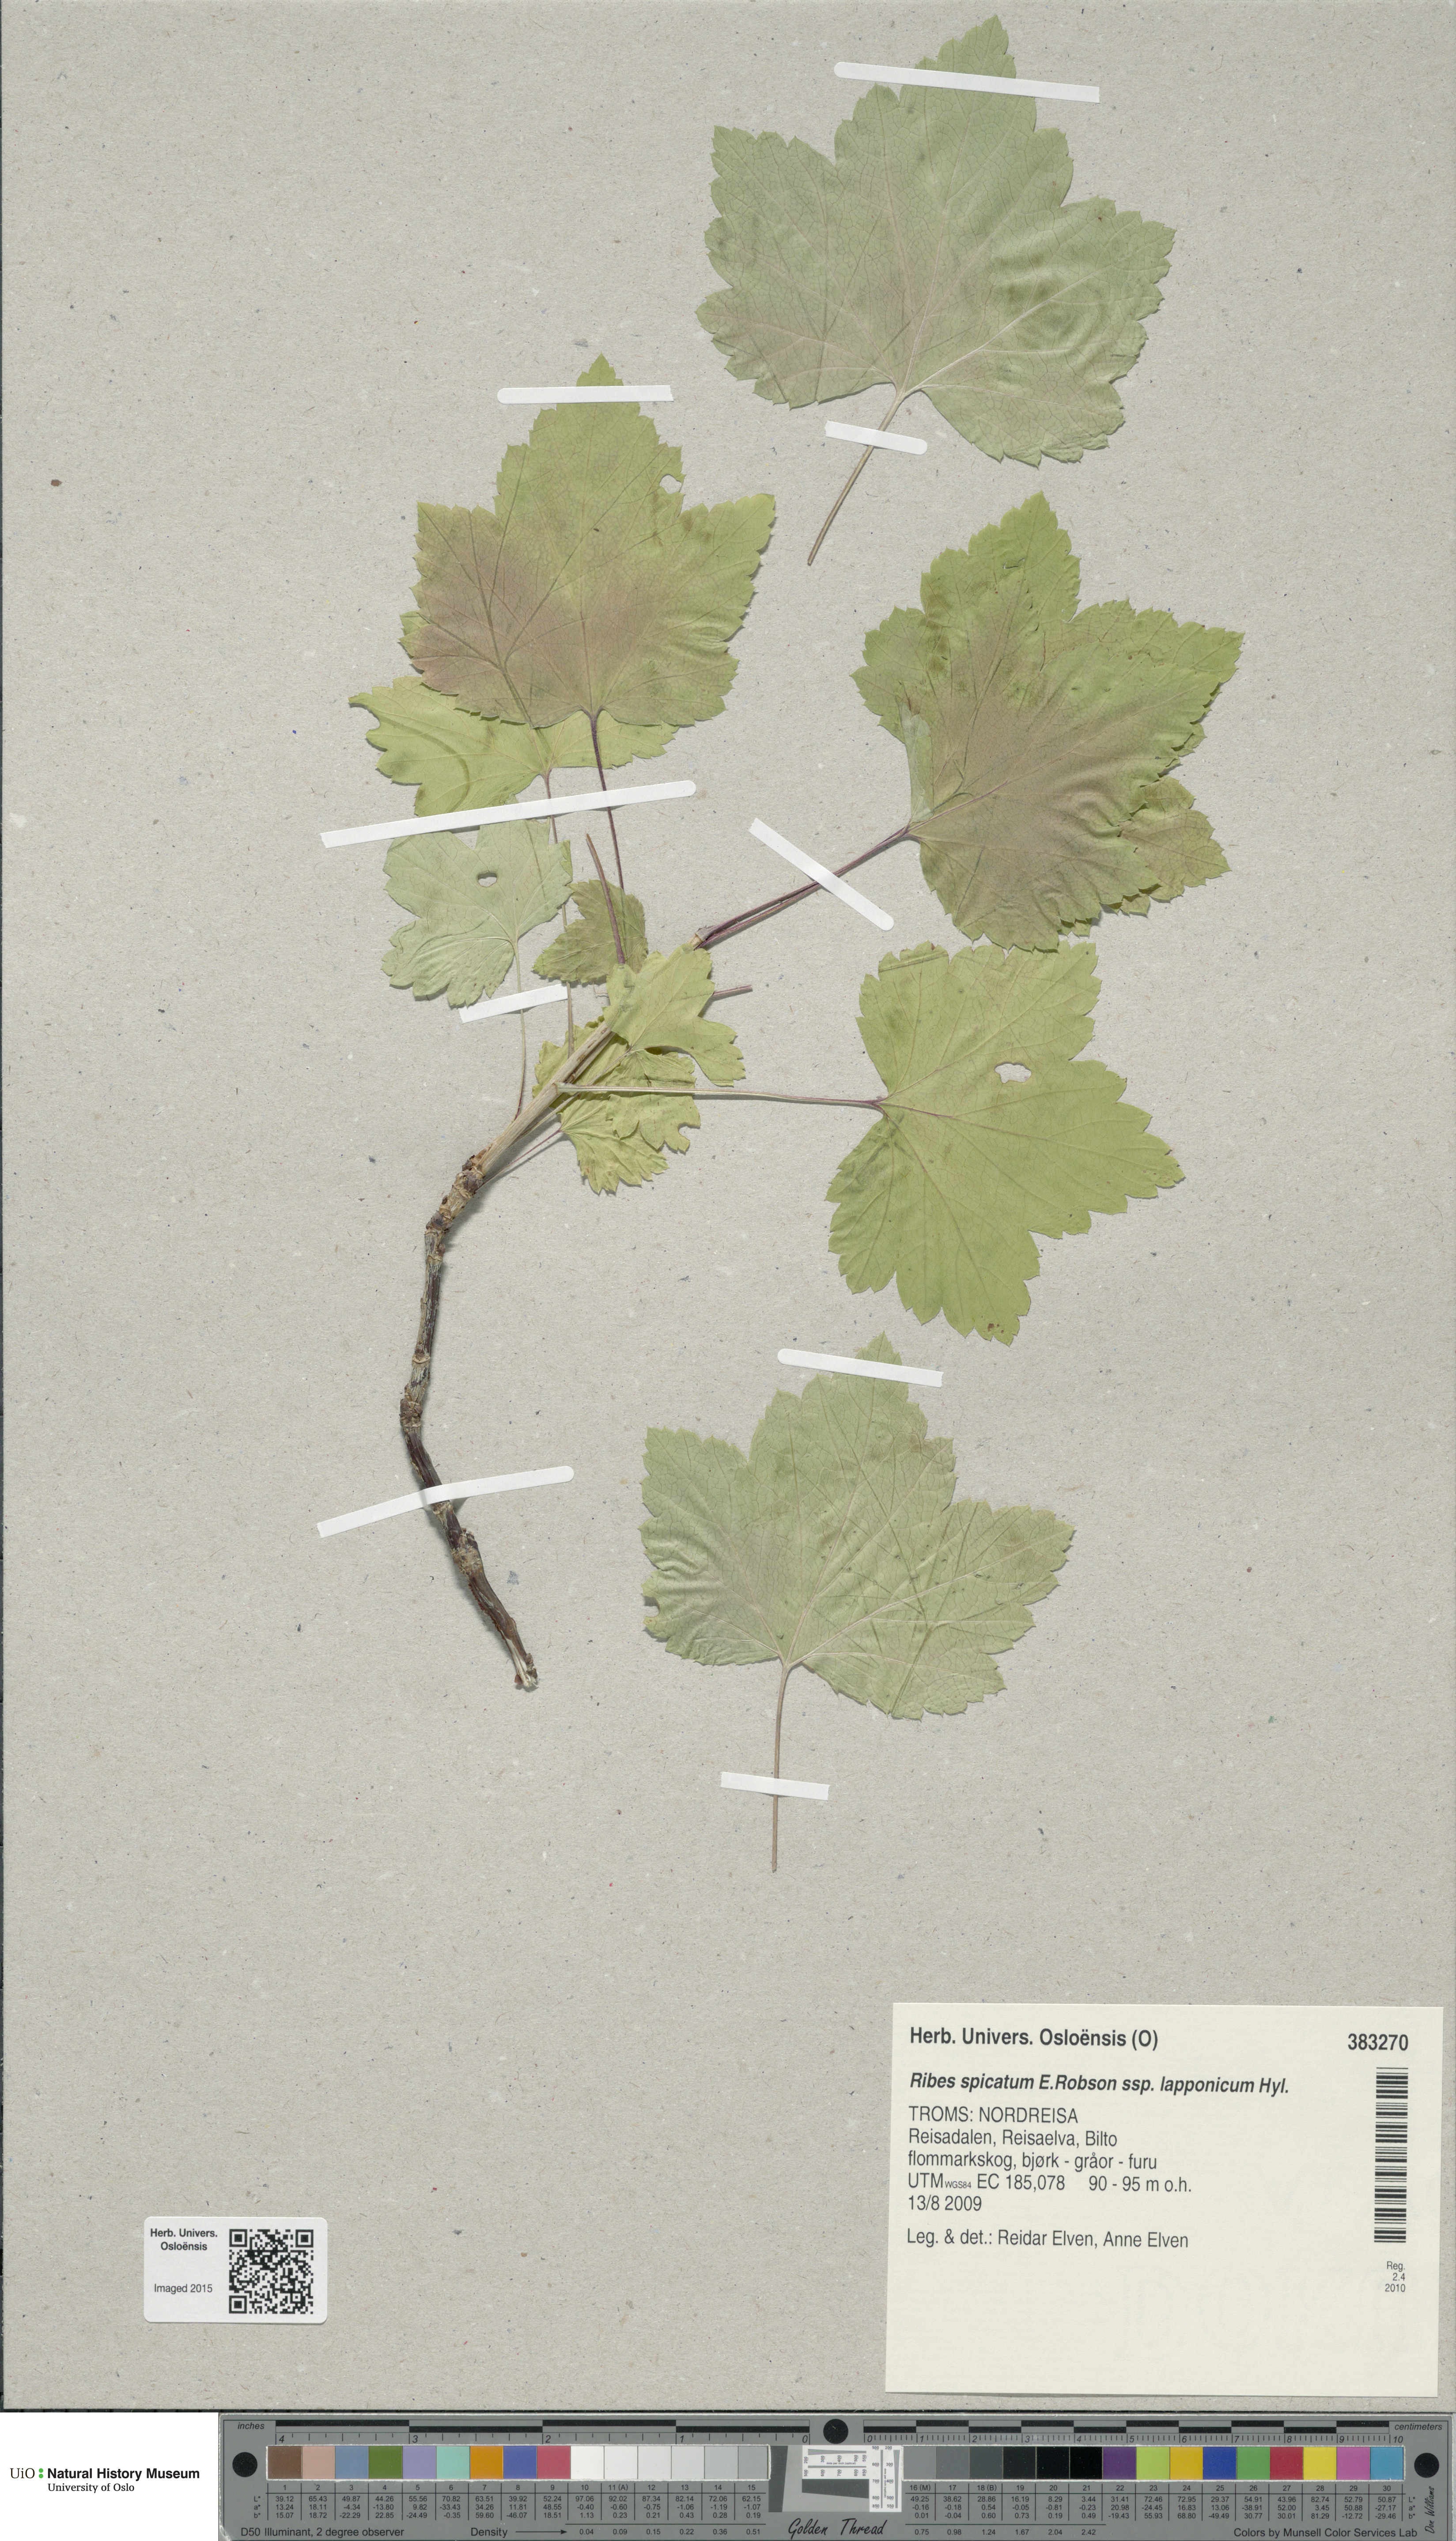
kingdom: Plantae
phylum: Tracheophyta
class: Magnoliopsida
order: Saxifragales
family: Grossulariaceae
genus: Ribes
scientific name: Ribes spicatum
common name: Downy currant
